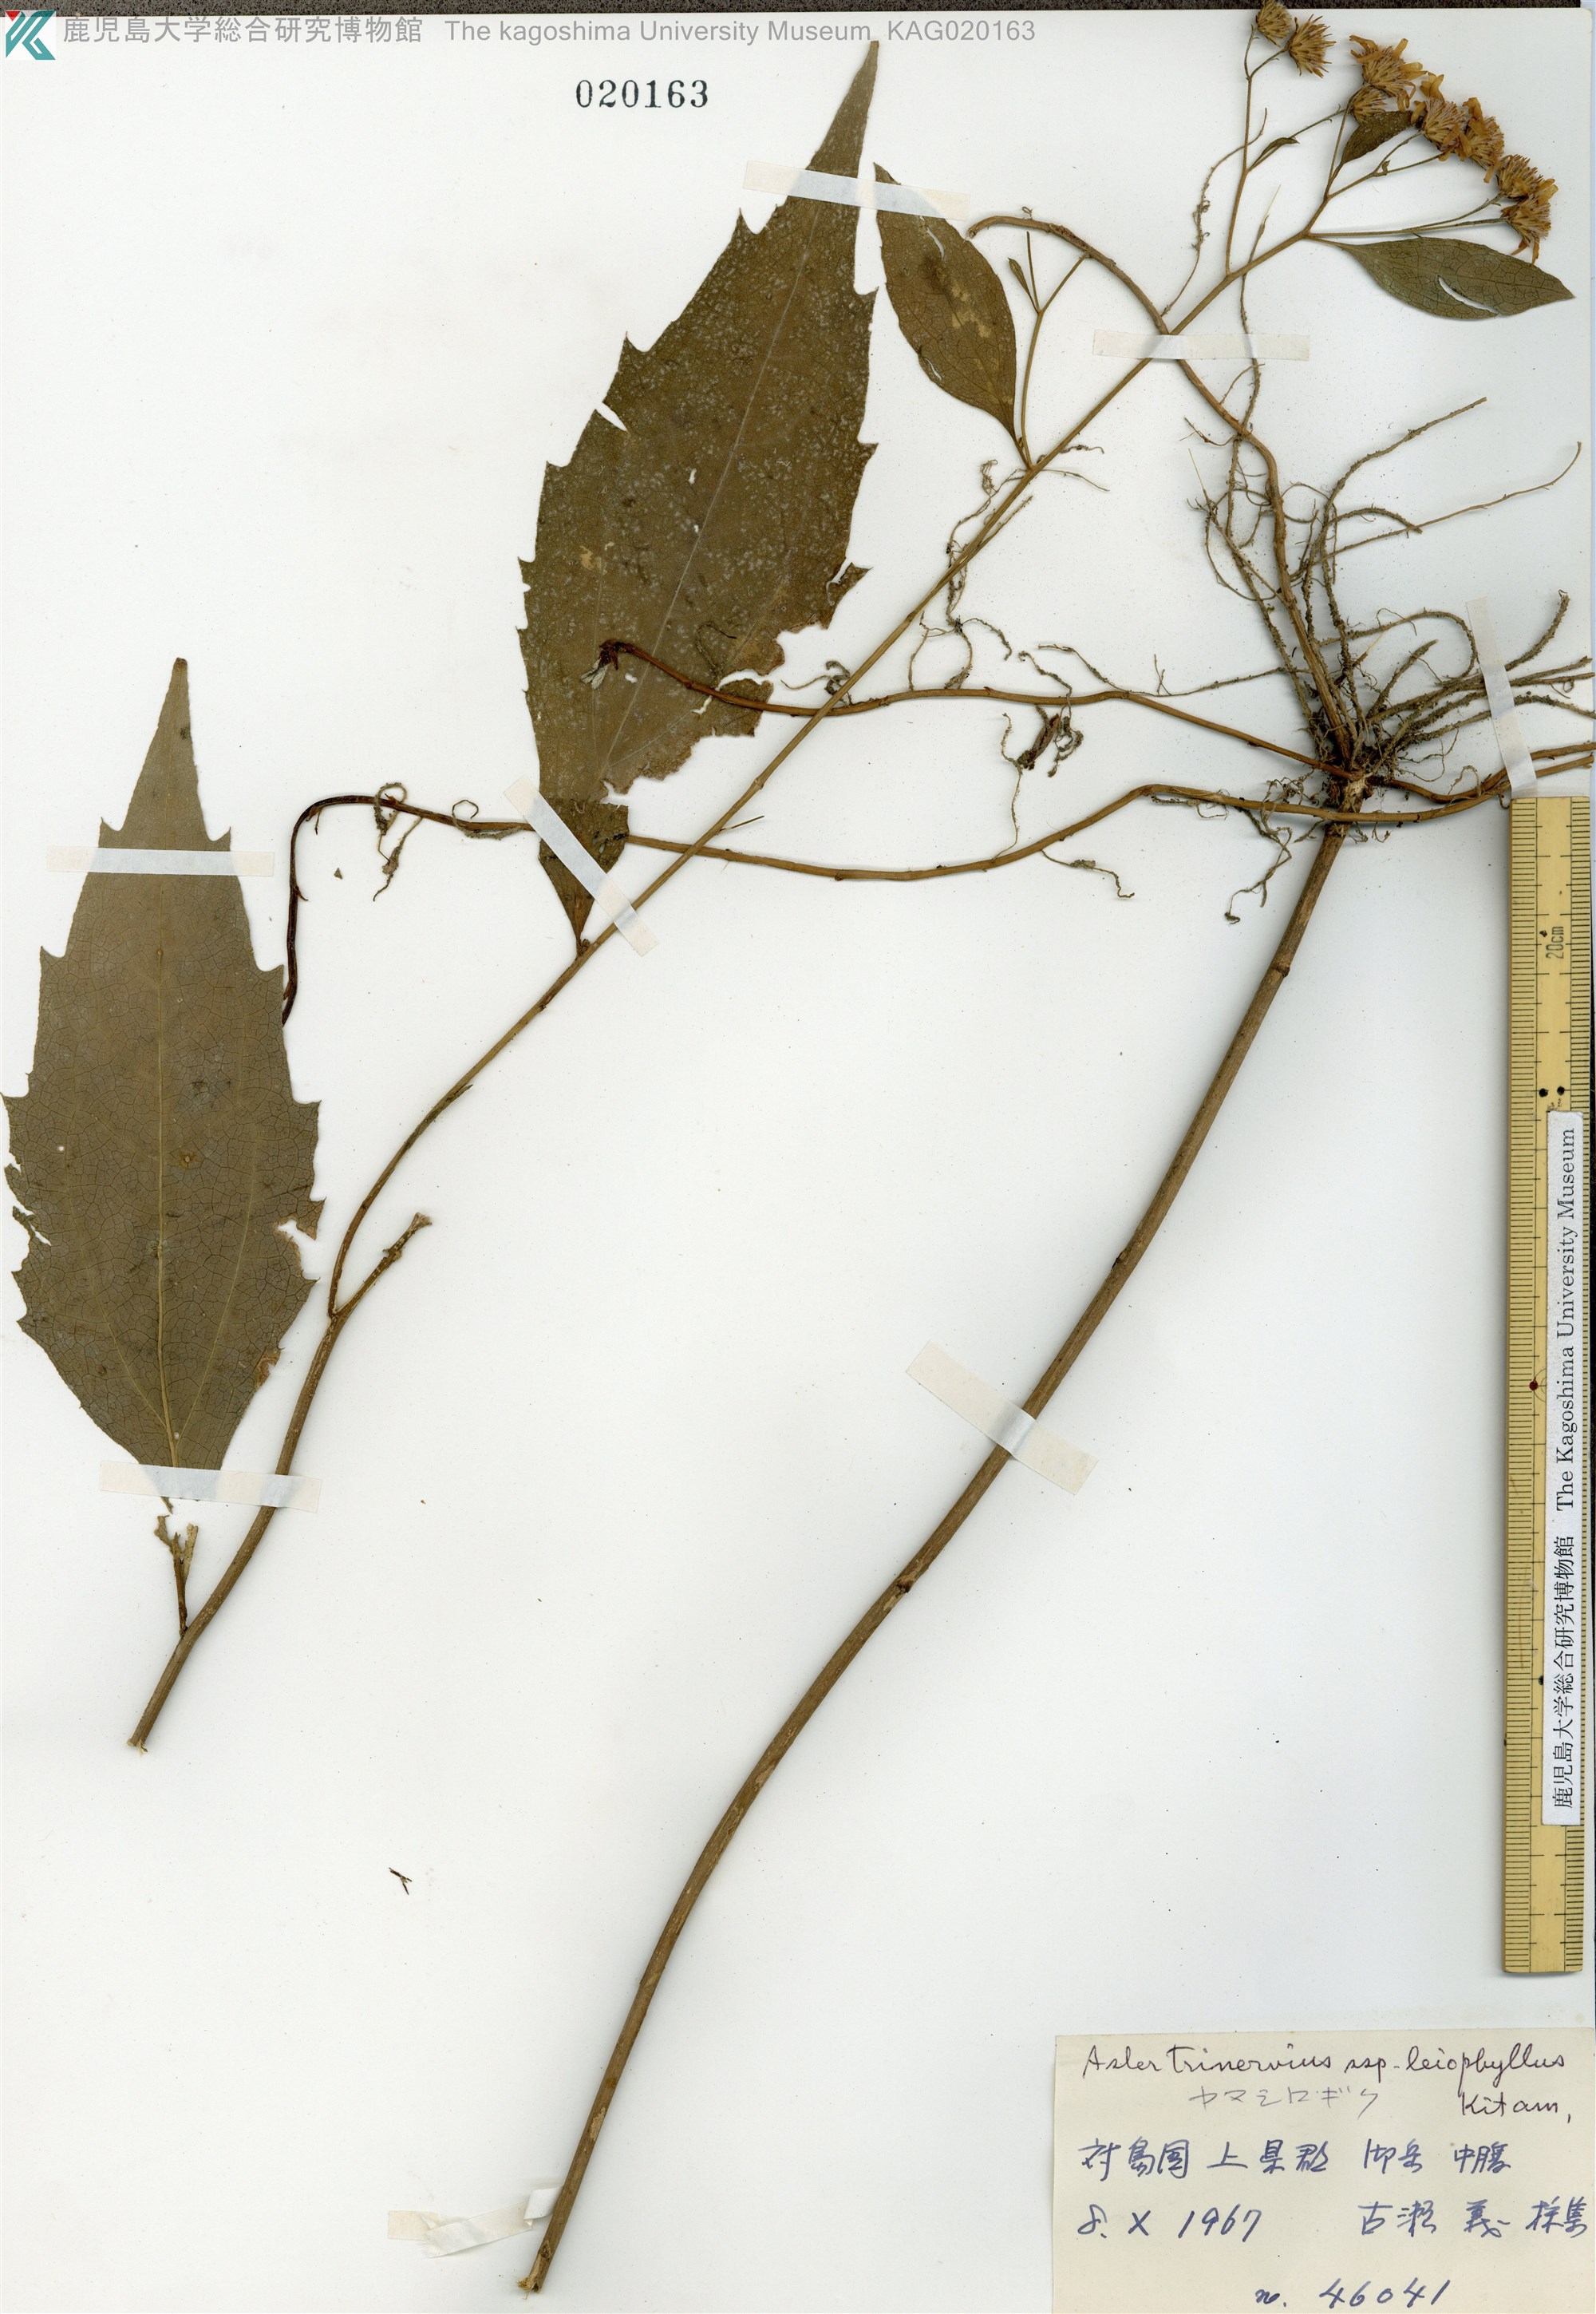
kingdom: Plantae
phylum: Tracheophyta
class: Magnoliopsida
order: Asterales
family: Asteraceae
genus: Aster
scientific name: Aster ageratoides
